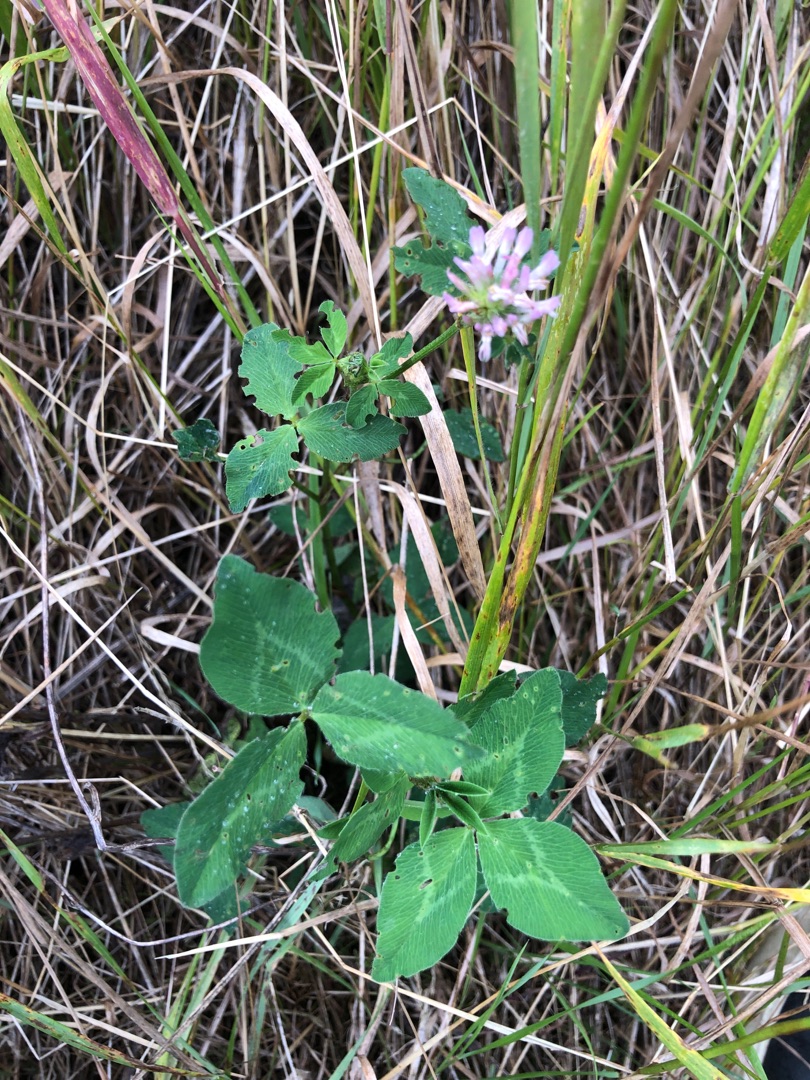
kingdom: Plantae
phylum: Tracheophyta
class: Magnoliopsida
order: Fabales
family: Fabaceae
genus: Trifolium
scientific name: Trifolium pratense
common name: Rød-kløver
